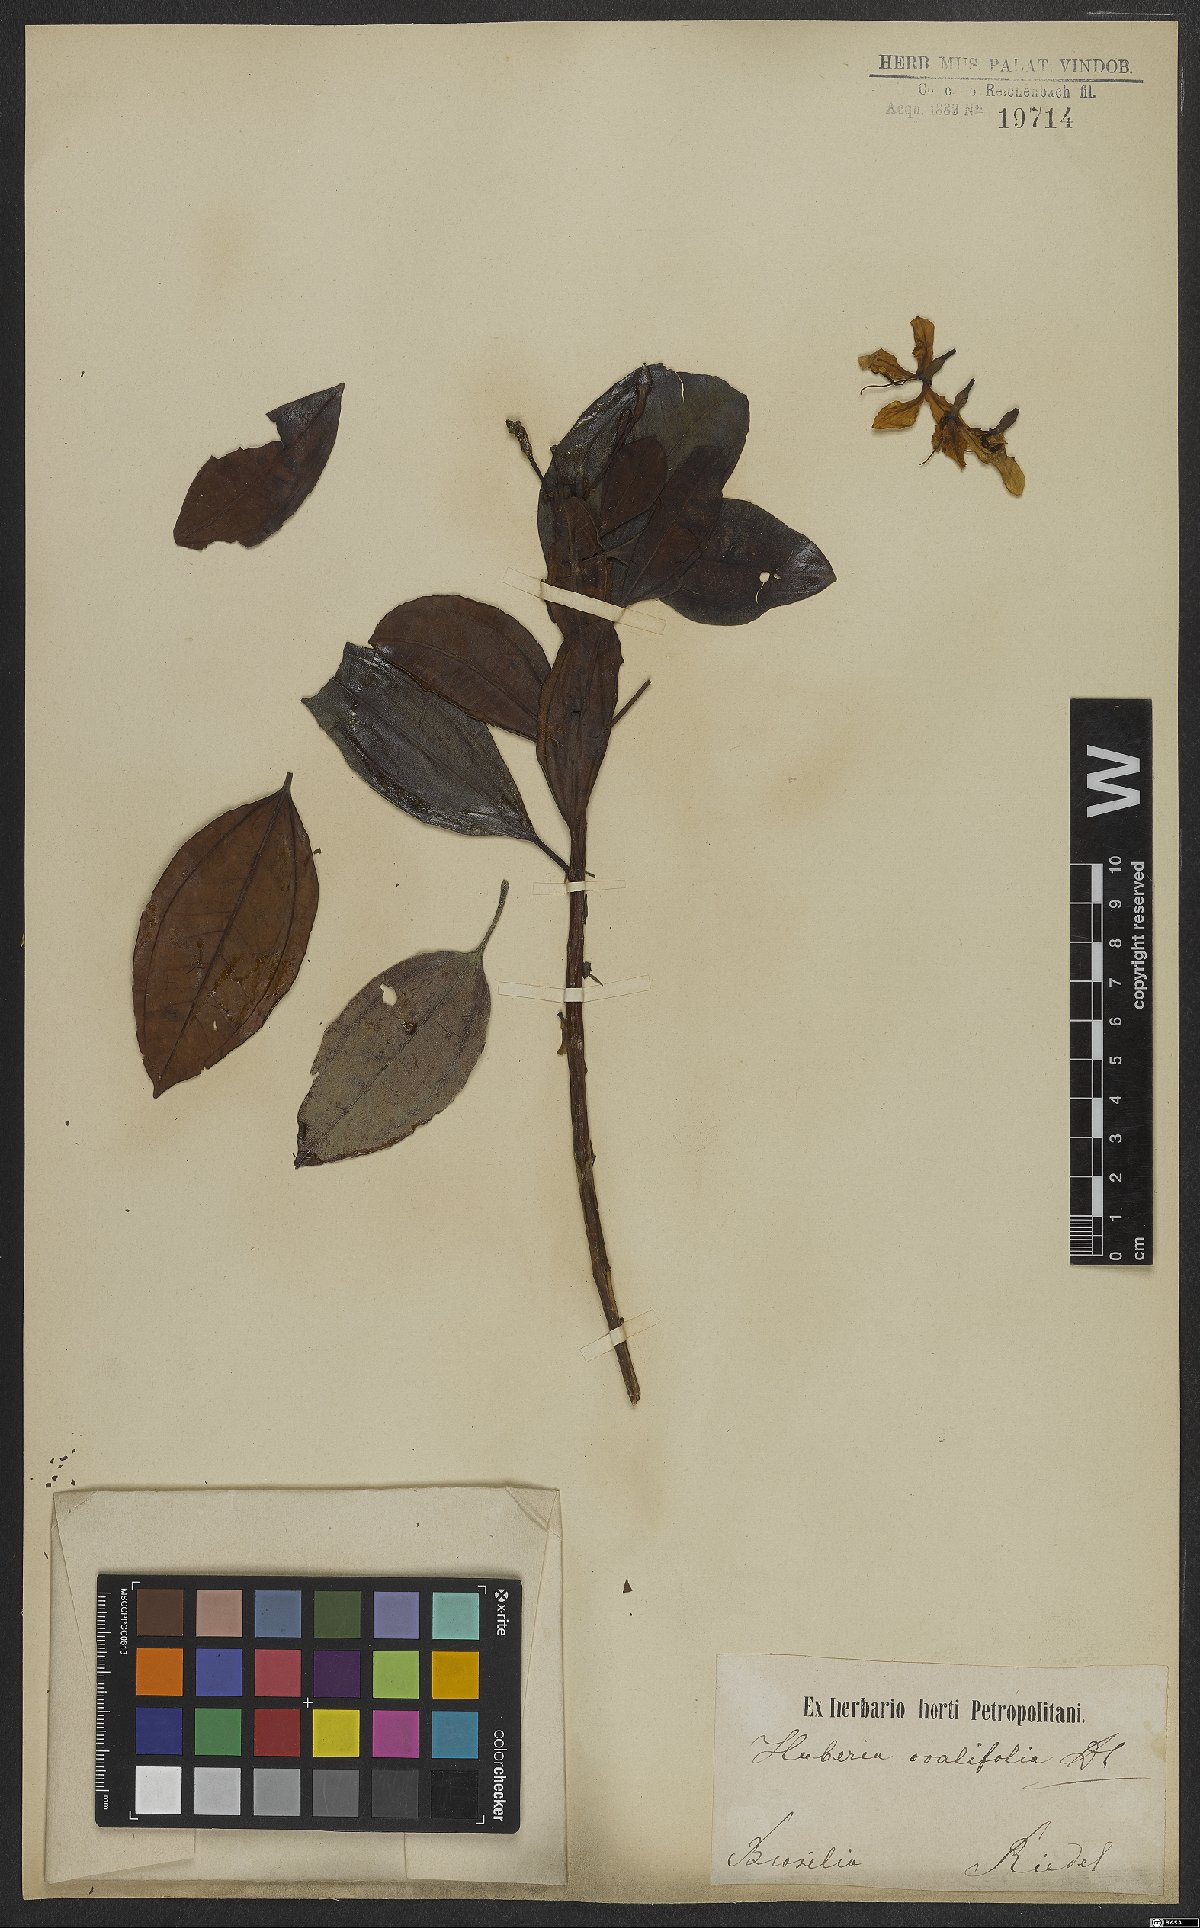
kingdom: Plantae
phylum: Tracheophyta
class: Magnoliopsida
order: Myrtales
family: Melastomataceae
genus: Huberia
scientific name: Huberia ovalifolia
